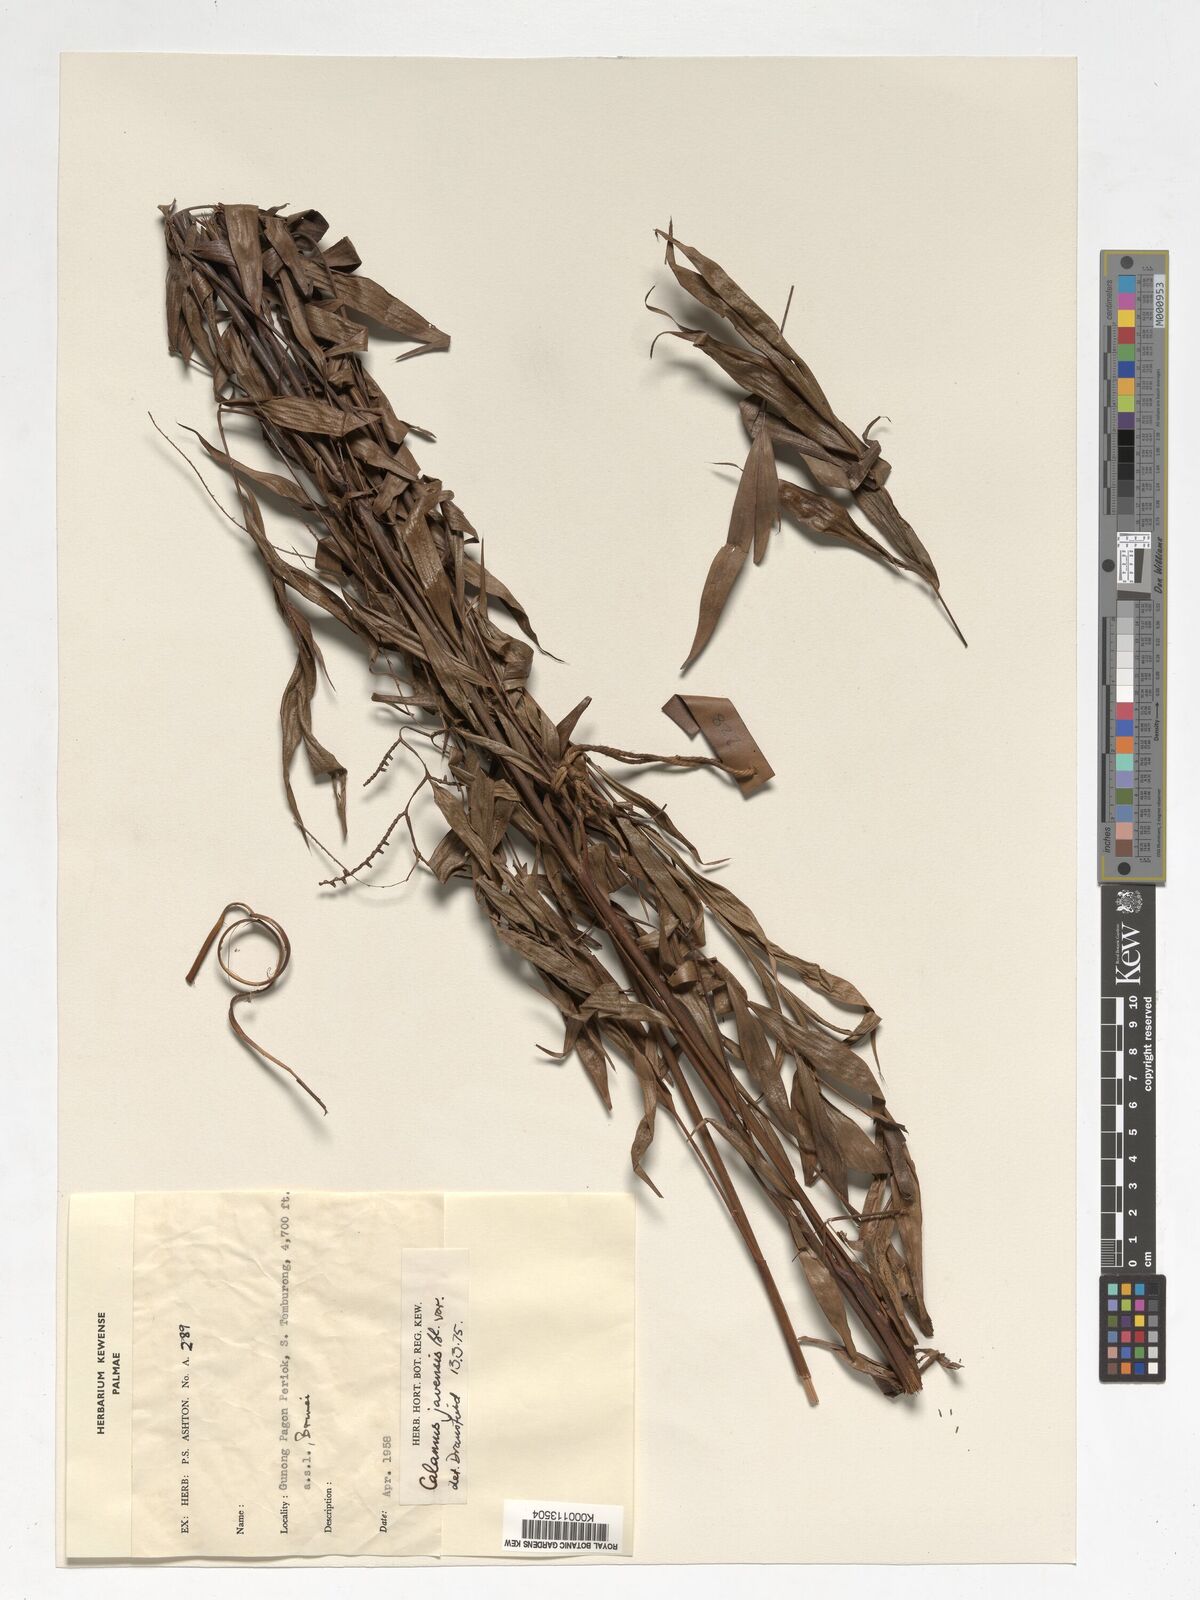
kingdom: Plantae
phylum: Tracheophyta
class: Liliopsida
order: Arecales
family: Arecaceae
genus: Calamus
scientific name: Calamus javensis
